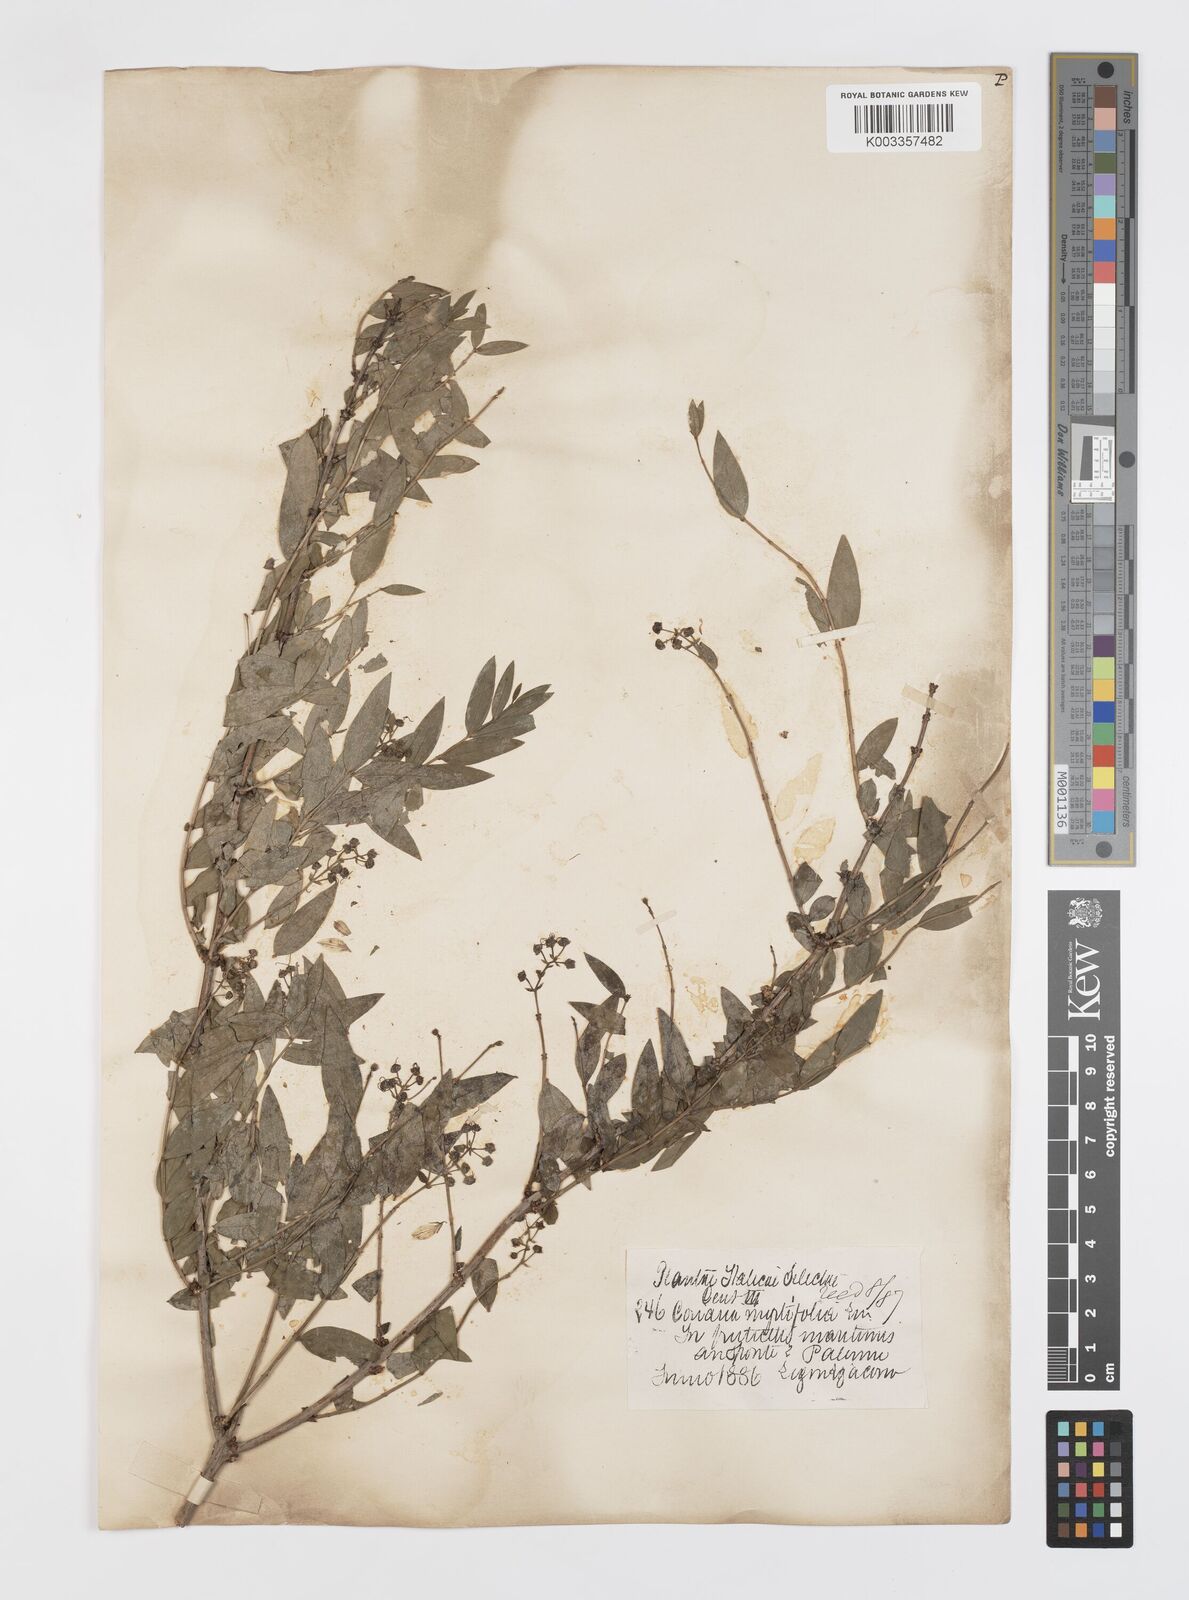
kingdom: Plantae
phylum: Tracheophyta
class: Magnoliopsida
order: Cucurbitales
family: Coriariaceae
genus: Coriaria
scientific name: Coriaria myrtifolia
